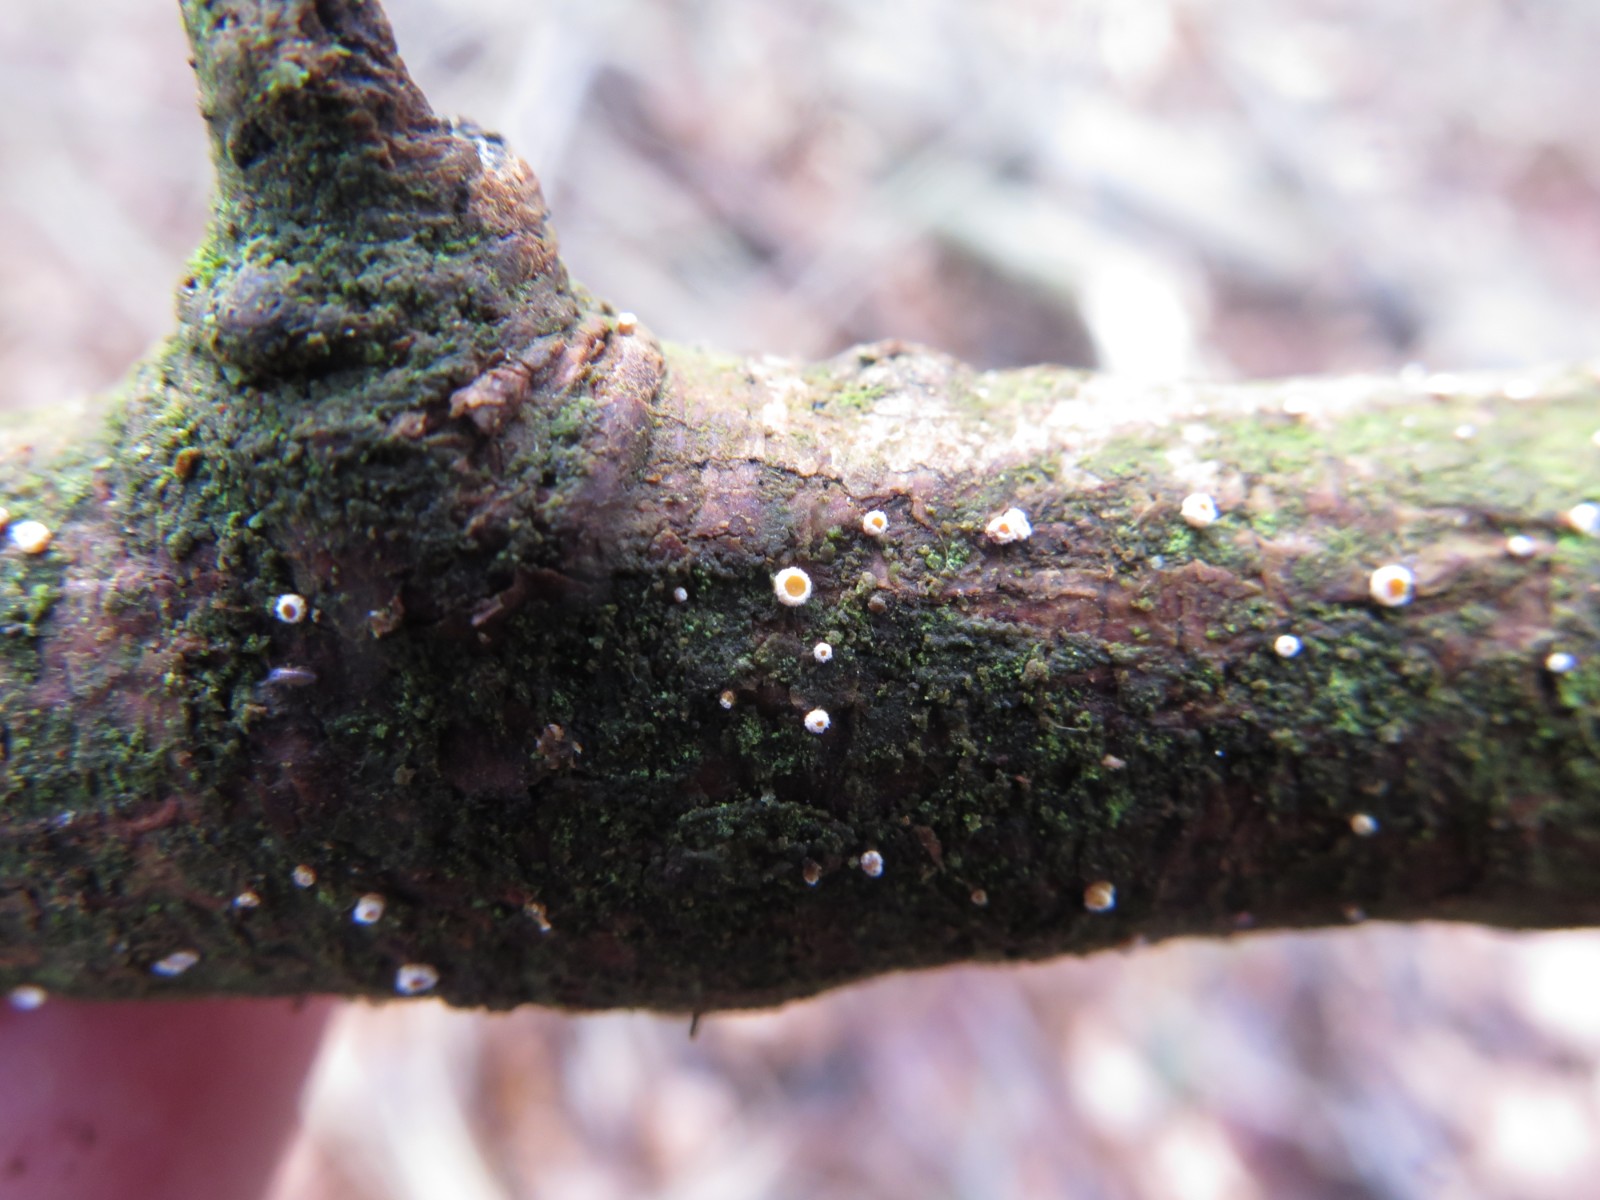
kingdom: Fungi
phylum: Ascomycota
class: Leotiomycetes
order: Helotiales
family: Lachnaceae
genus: Lachnellula
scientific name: Lachnellula occidentalis
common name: Larch disco
